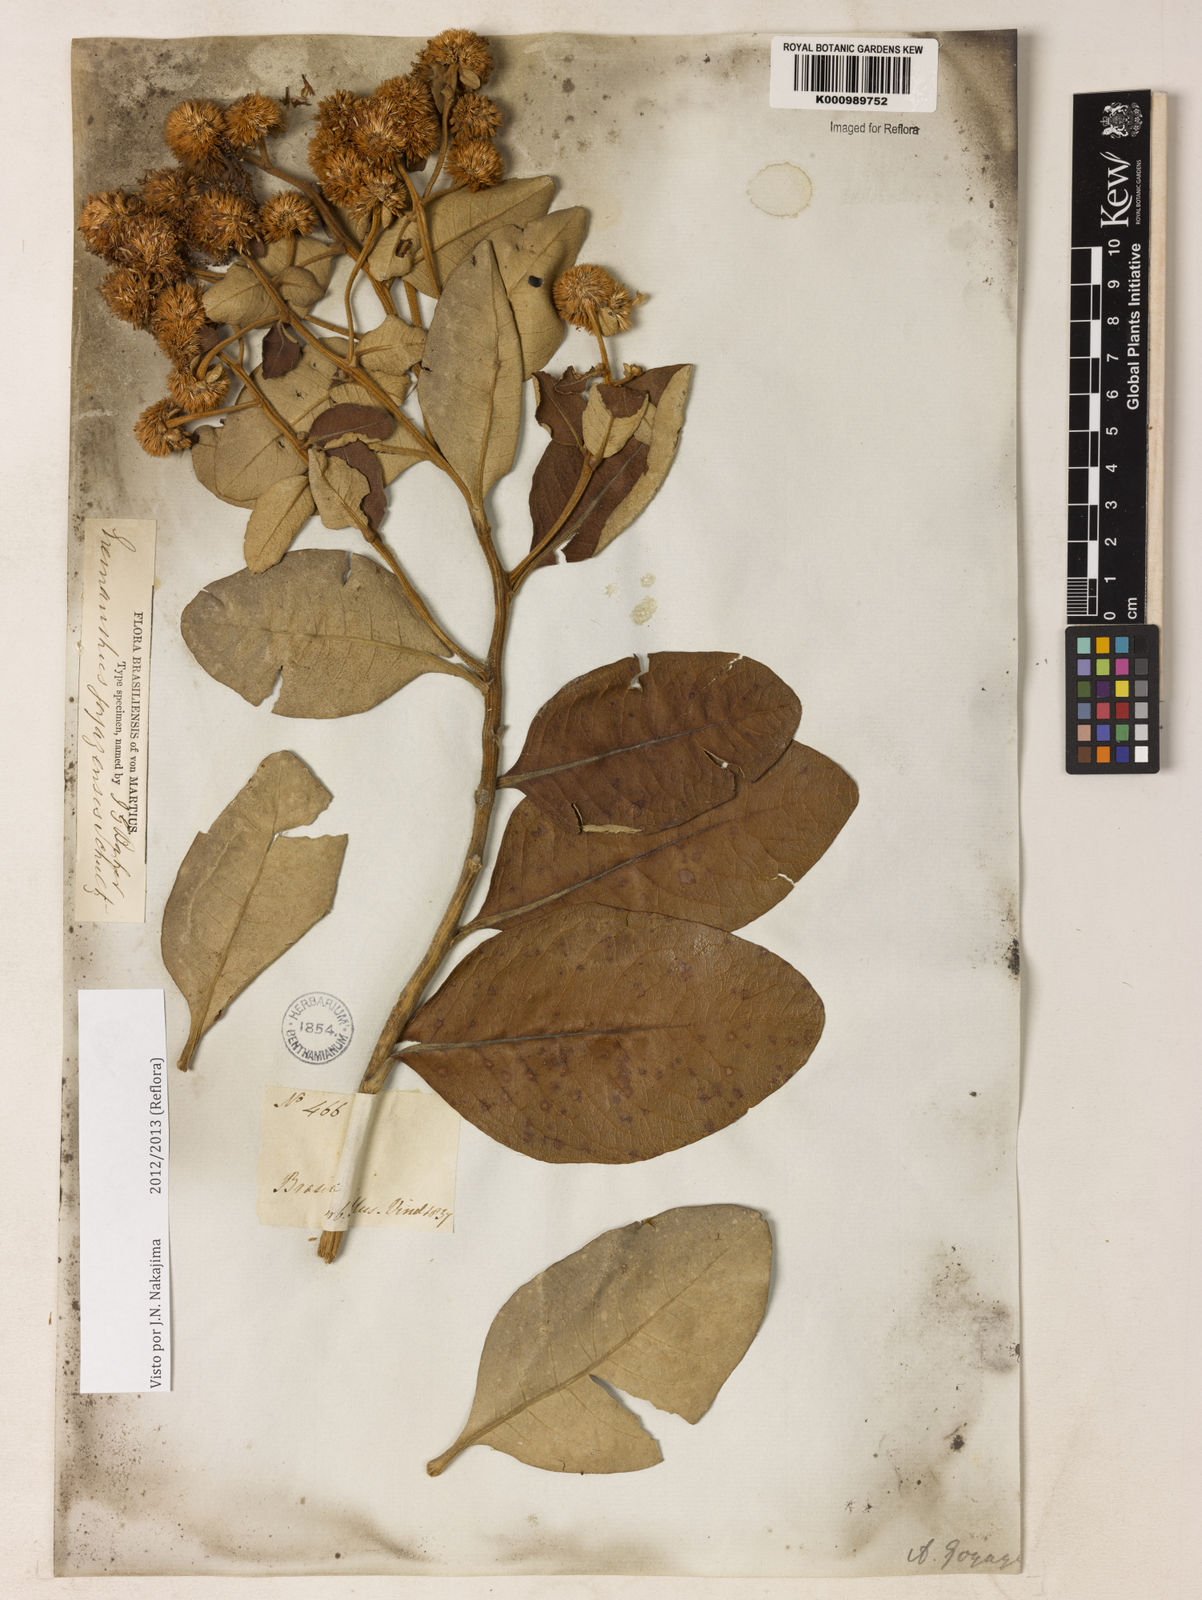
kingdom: Plantae
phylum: Tracheophyta
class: Magnoliopsida
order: Asterales
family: Asteraceae
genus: Eremanthus
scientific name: Eremanthus goyazensis
